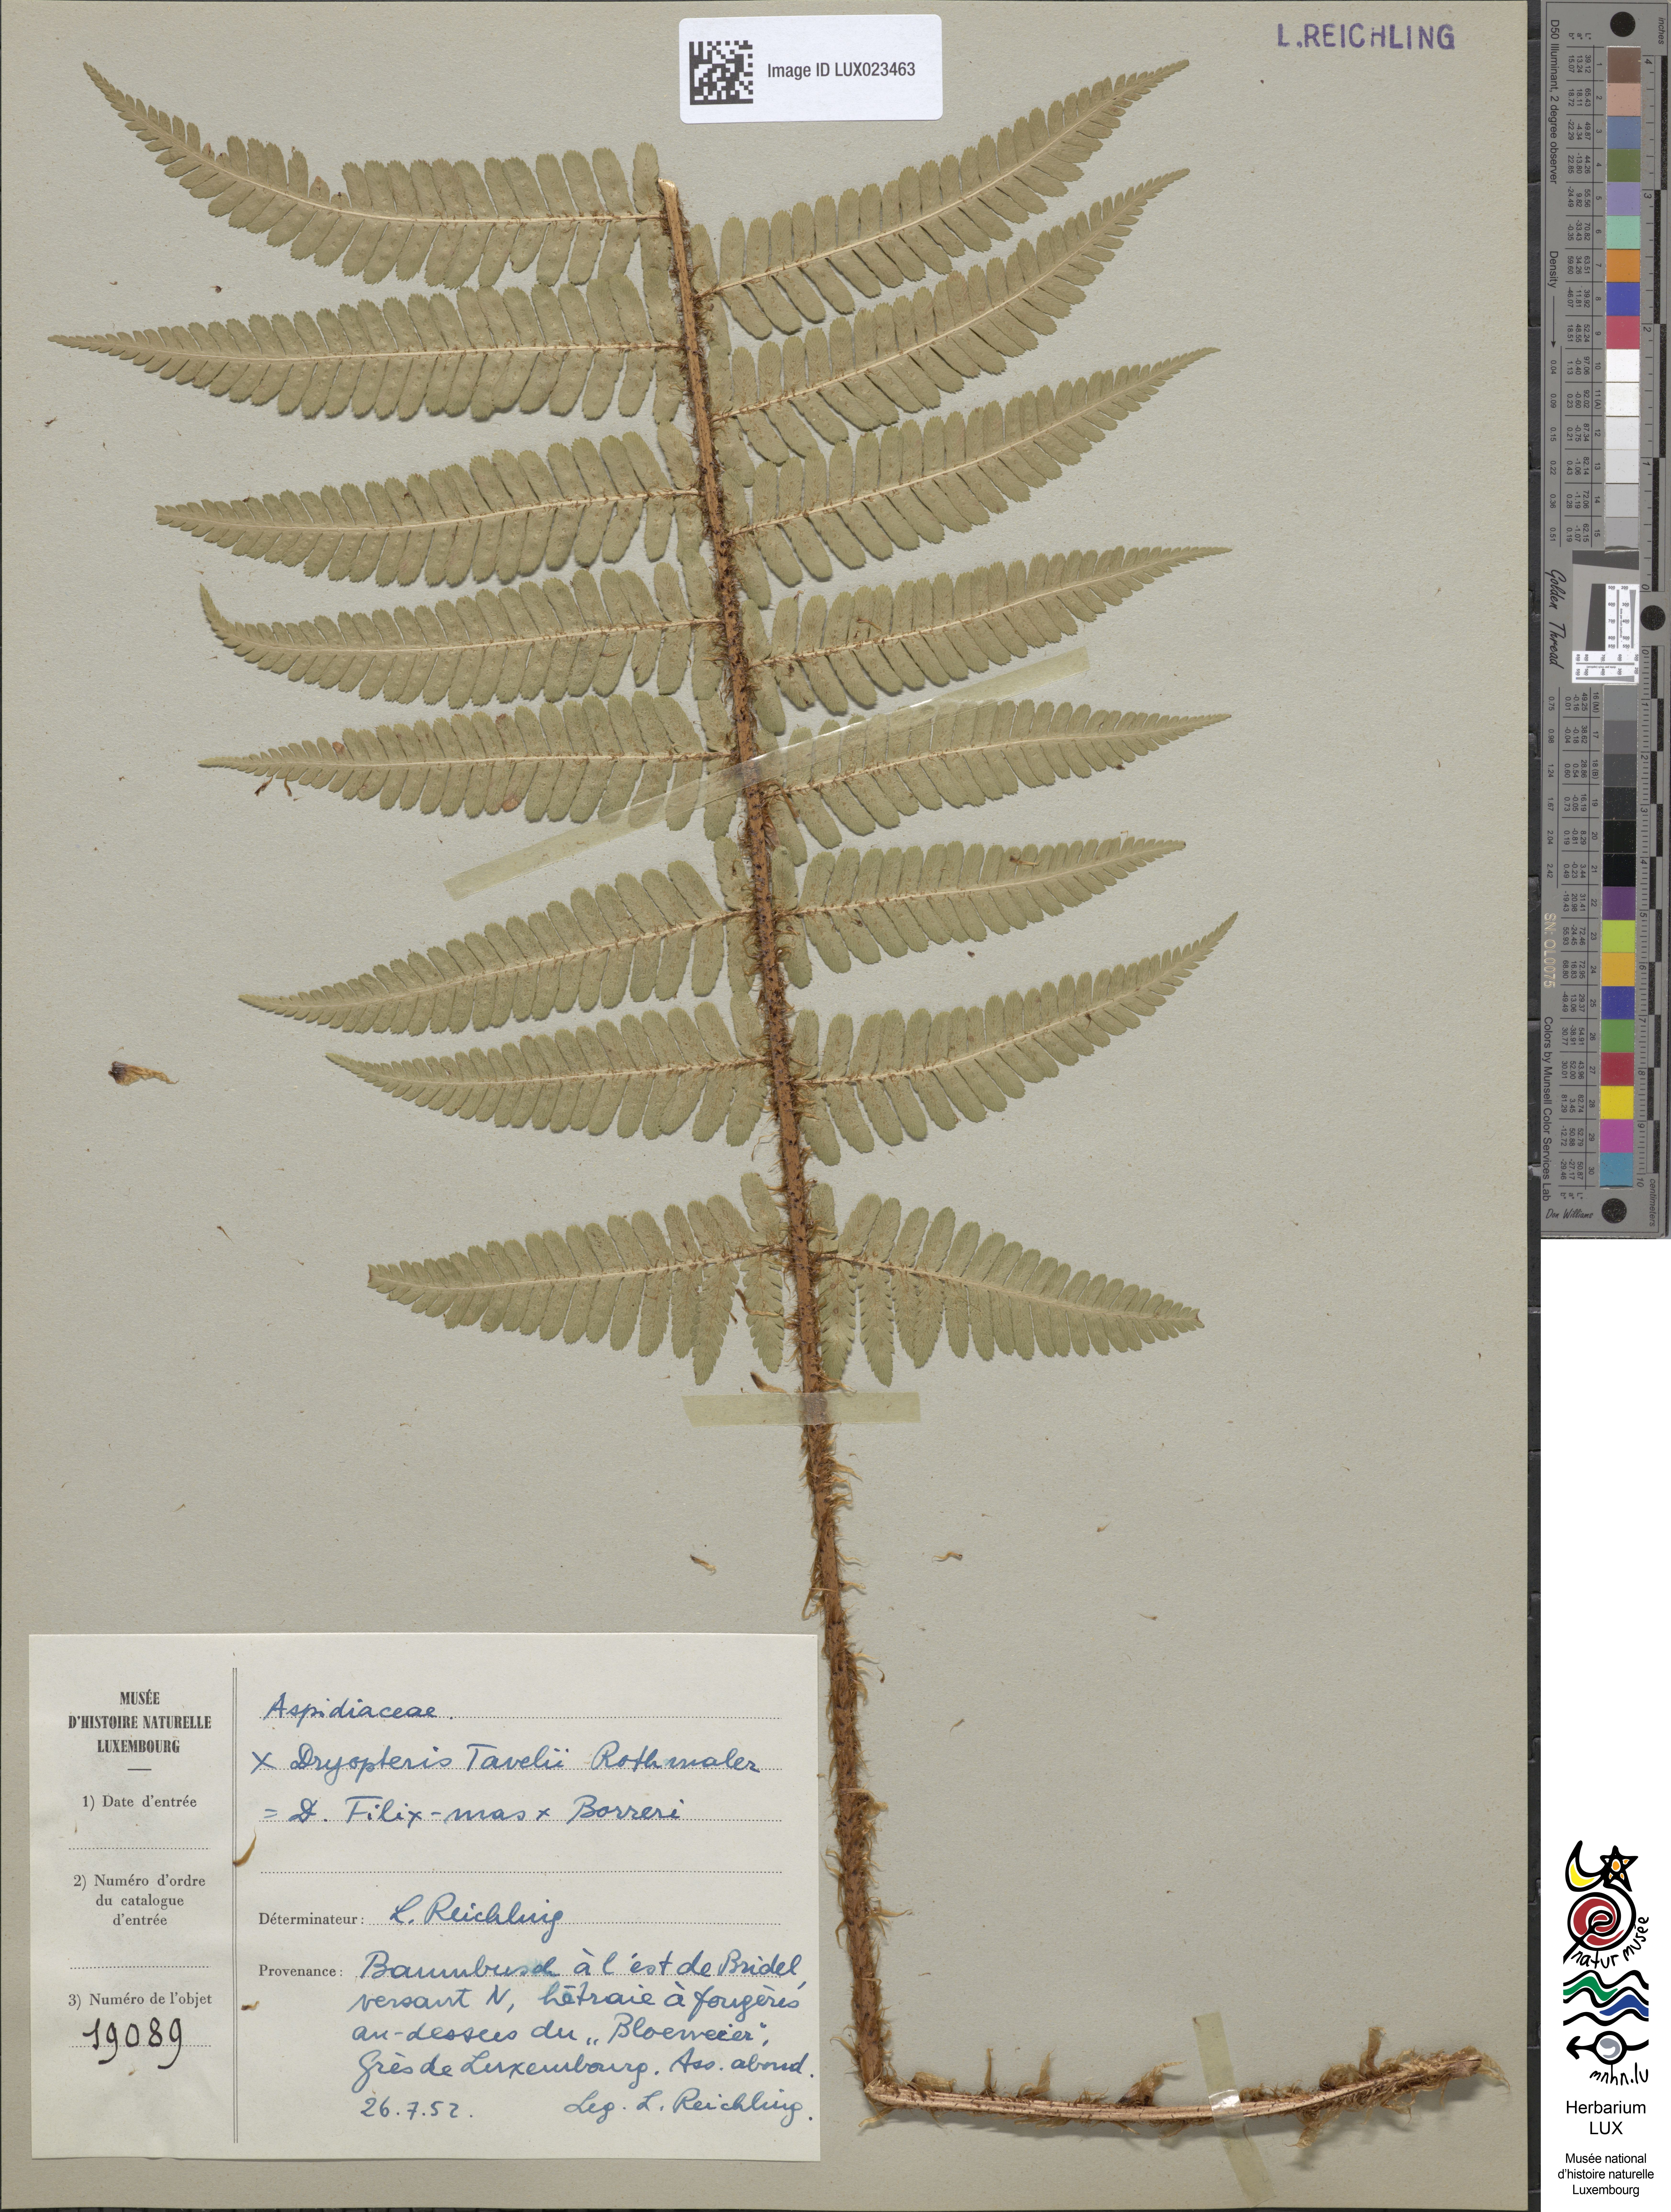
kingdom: Plantae
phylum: Tracheophyta
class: Polypodiopsida
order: Polypodiales
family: Dryopteridaceae
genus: Dryopteris
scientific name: Dryopteris borreri
